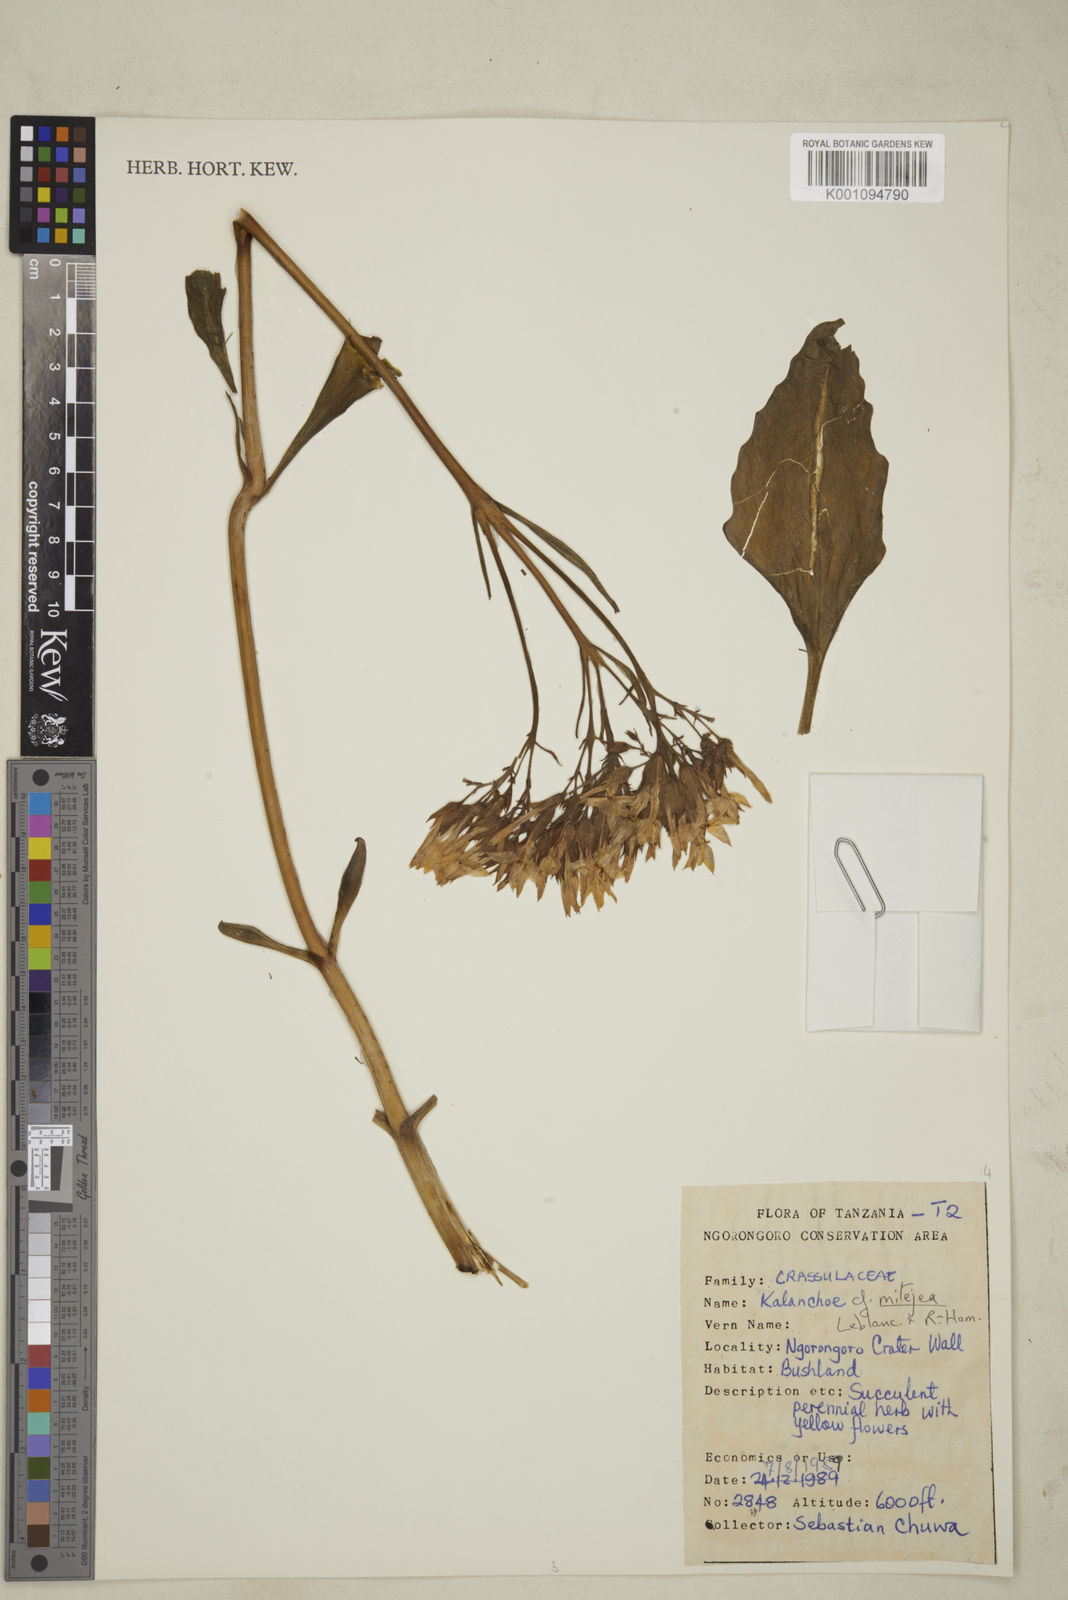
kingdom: Plantae
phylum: Tracheophyta
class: Magnoliopsida
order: Saxifragales
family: Crassulaceae
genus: Kalanchoe
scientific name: Kalanchoe mitejea
